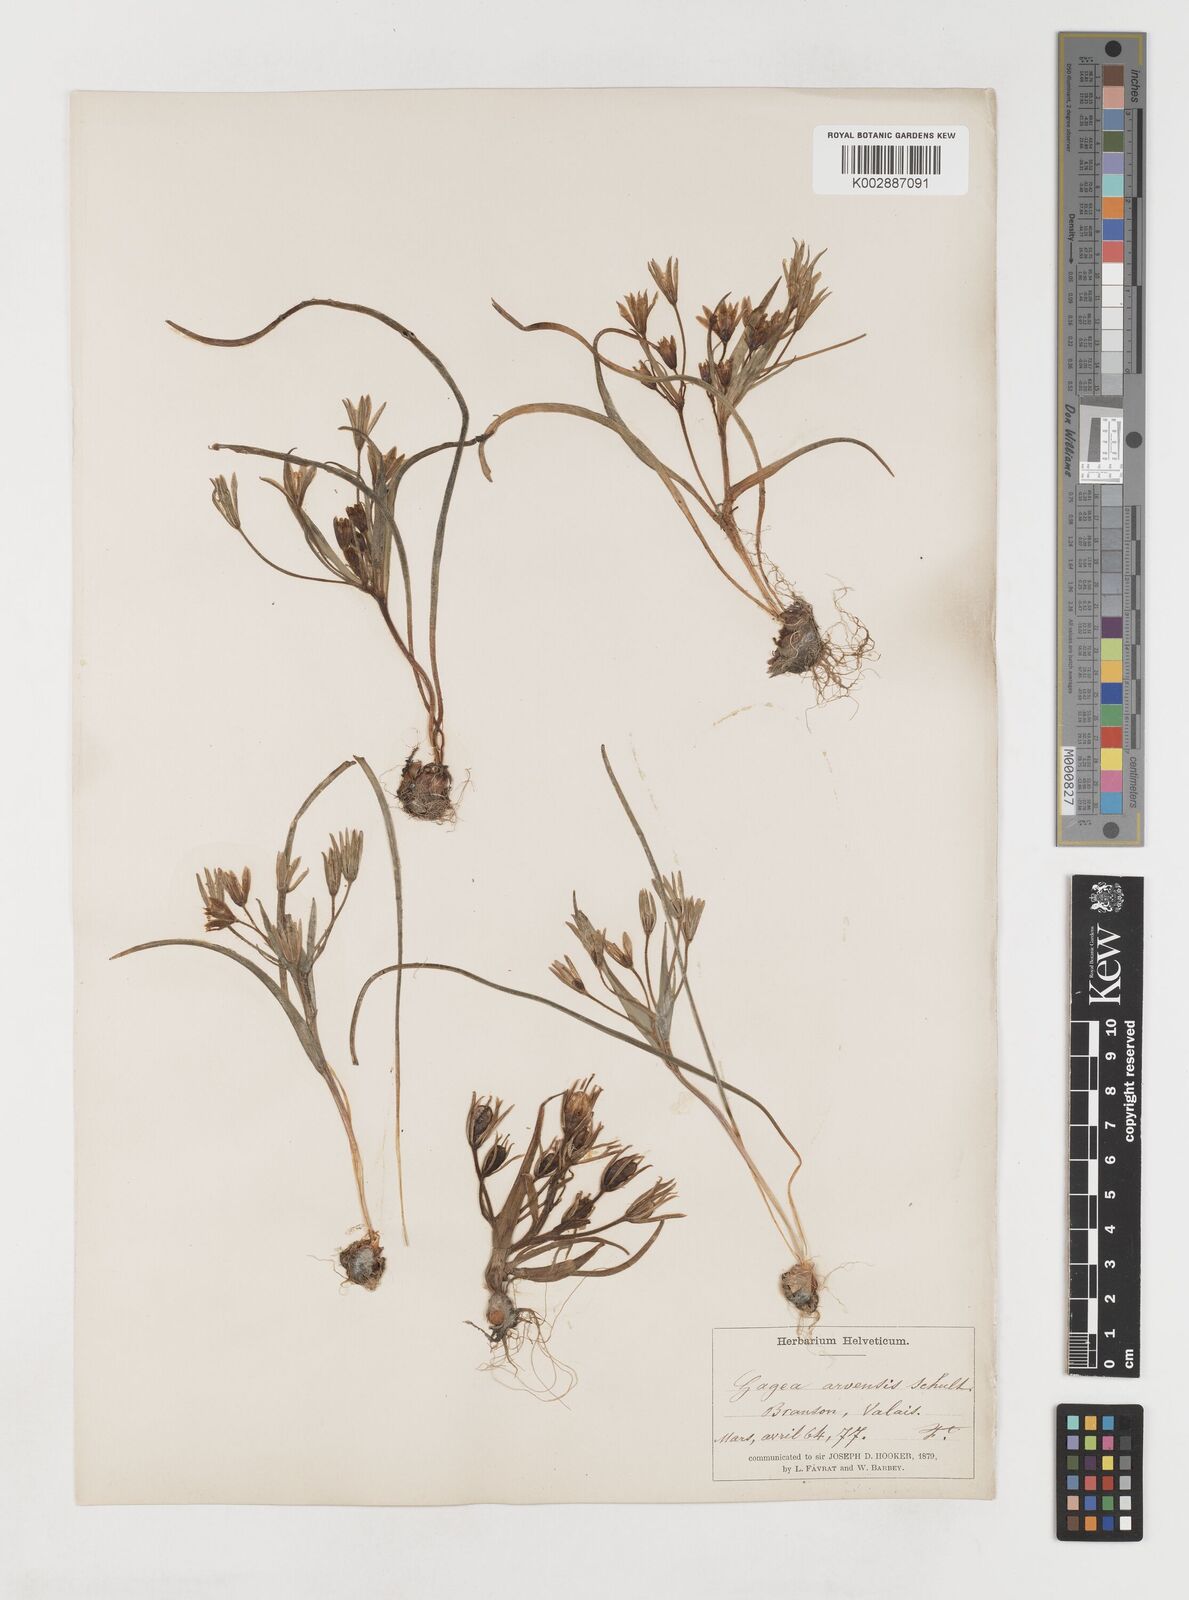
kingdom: Plantae
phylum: Tracheophyta
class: Liliopsida
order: Liliales
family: Liliaceae
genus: Gagea
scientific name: Gagea minima
